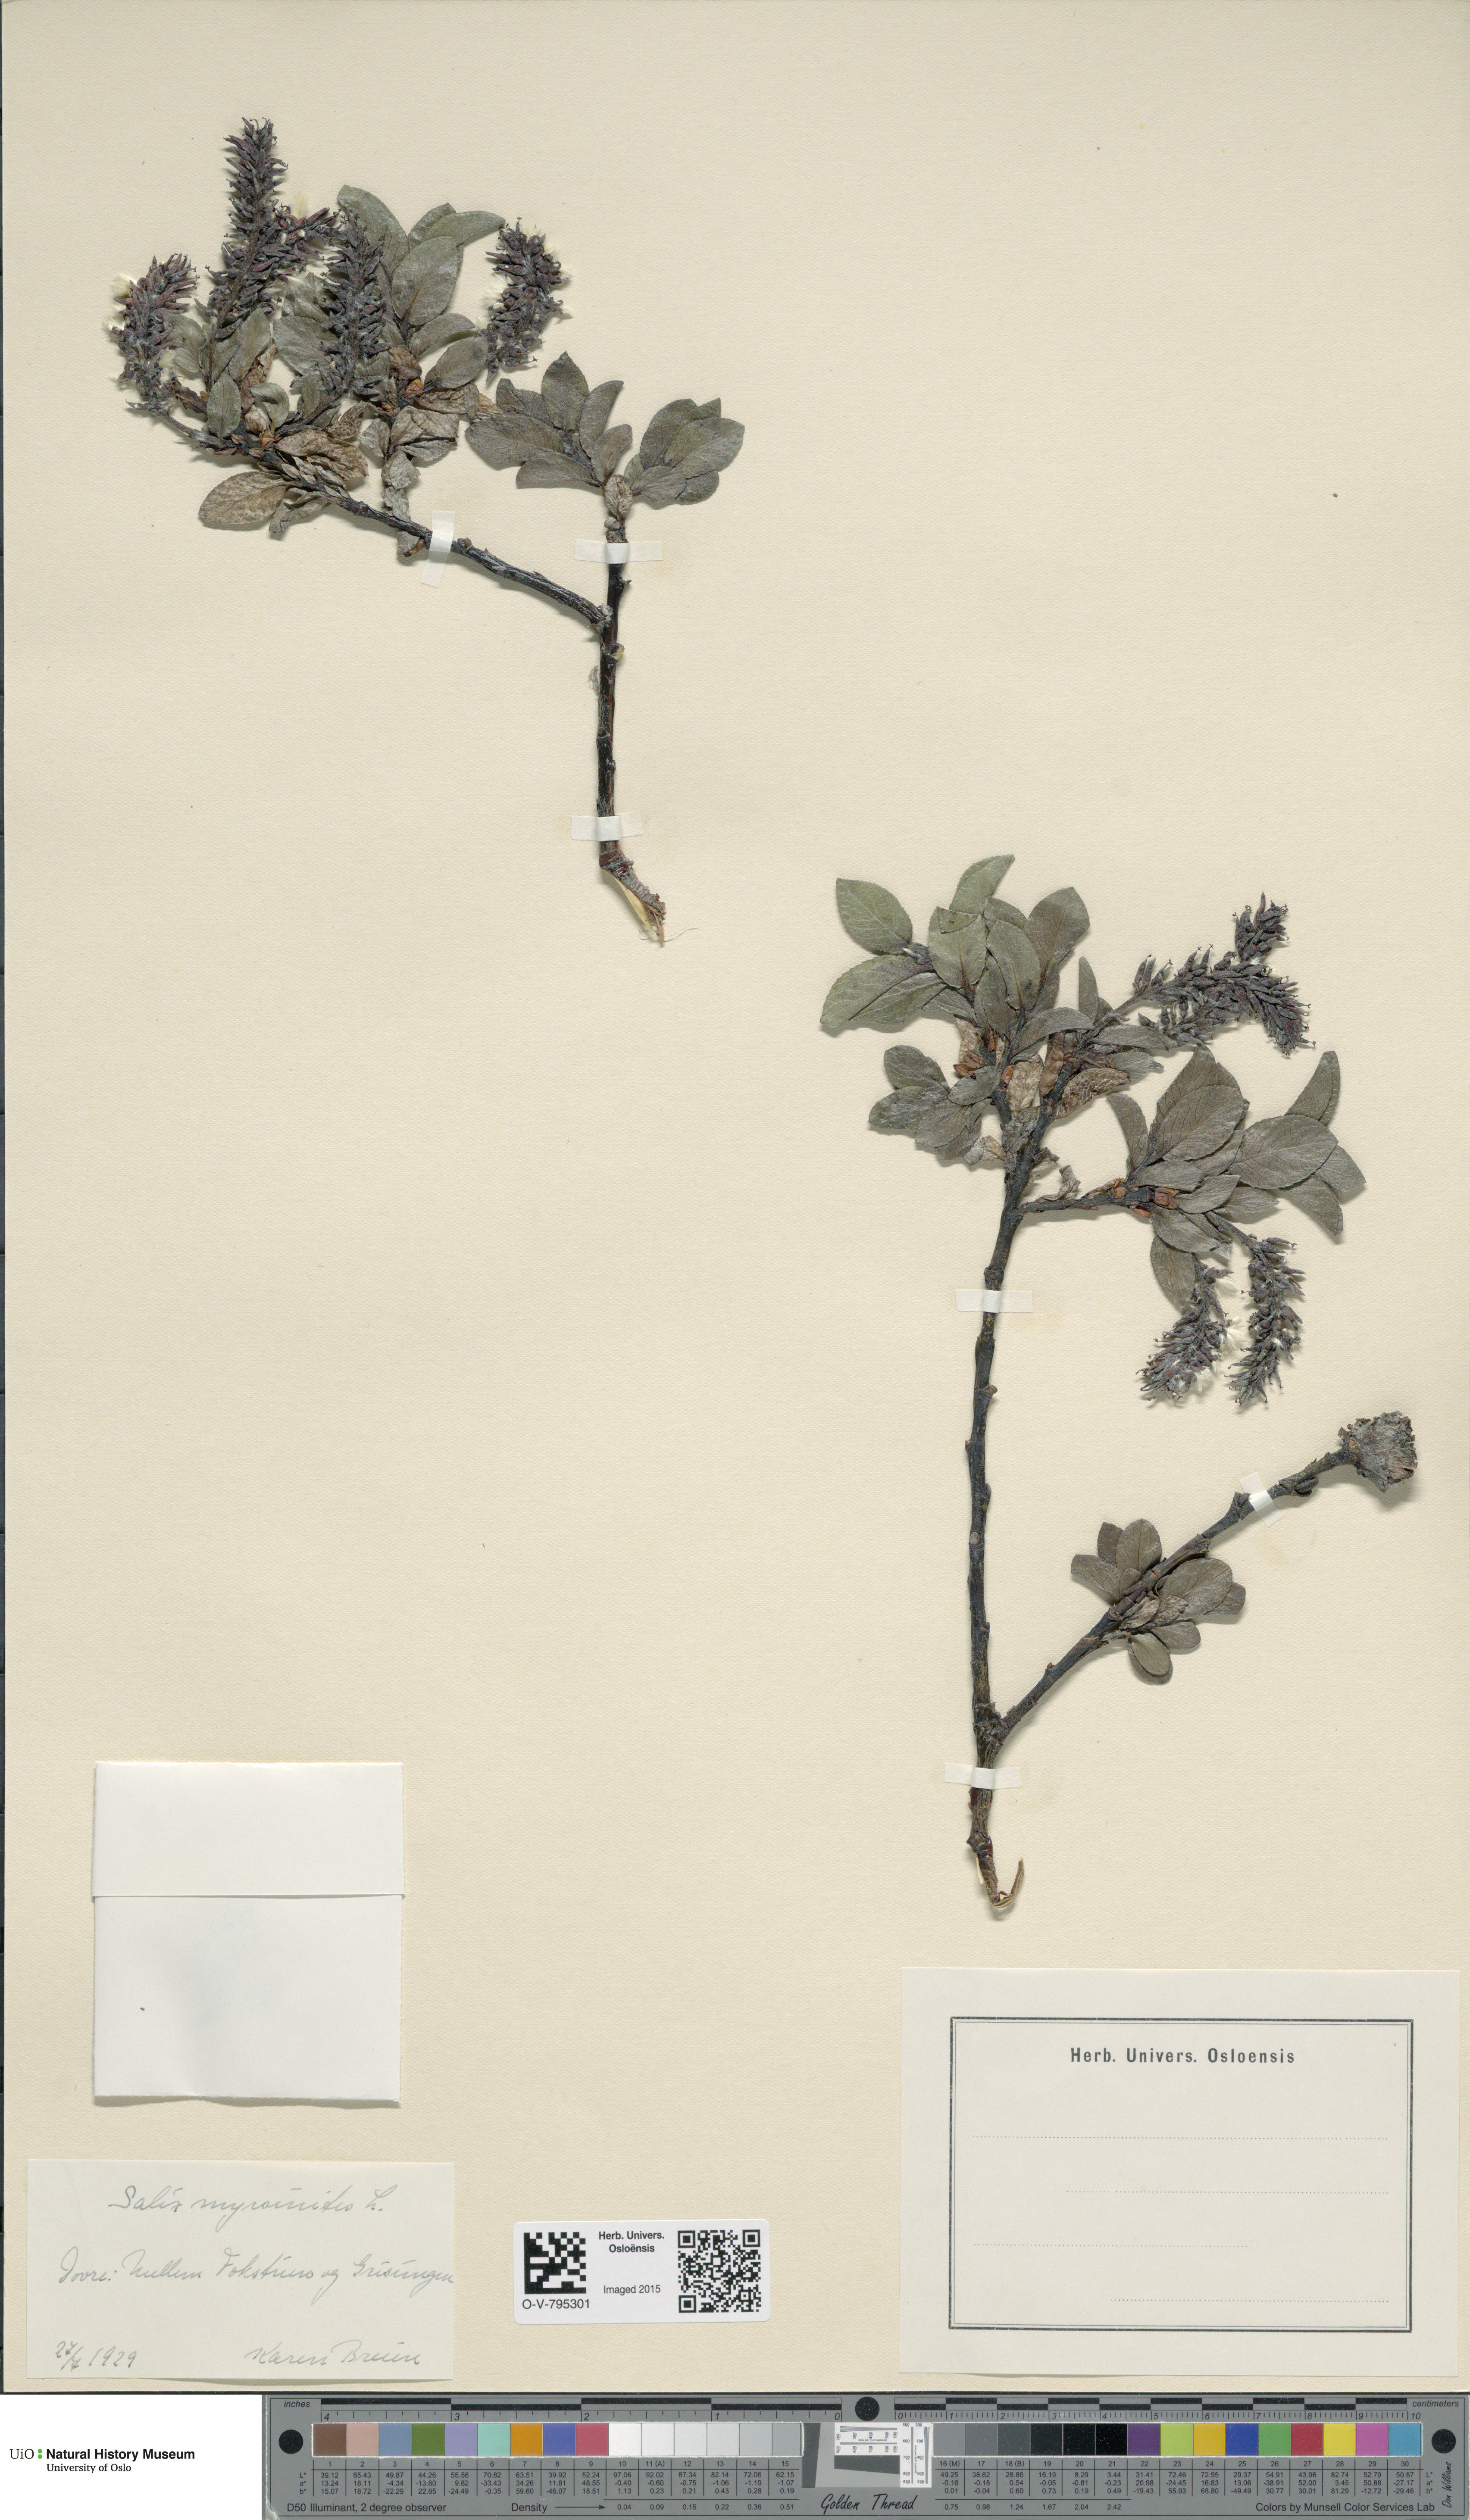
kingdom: Plantae
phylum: Tracheophyta
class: Magnoliopsida
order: Malpighiales
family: Salicaceae
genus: Salix
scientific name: Salix myrsinites
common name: Myrtle willow
